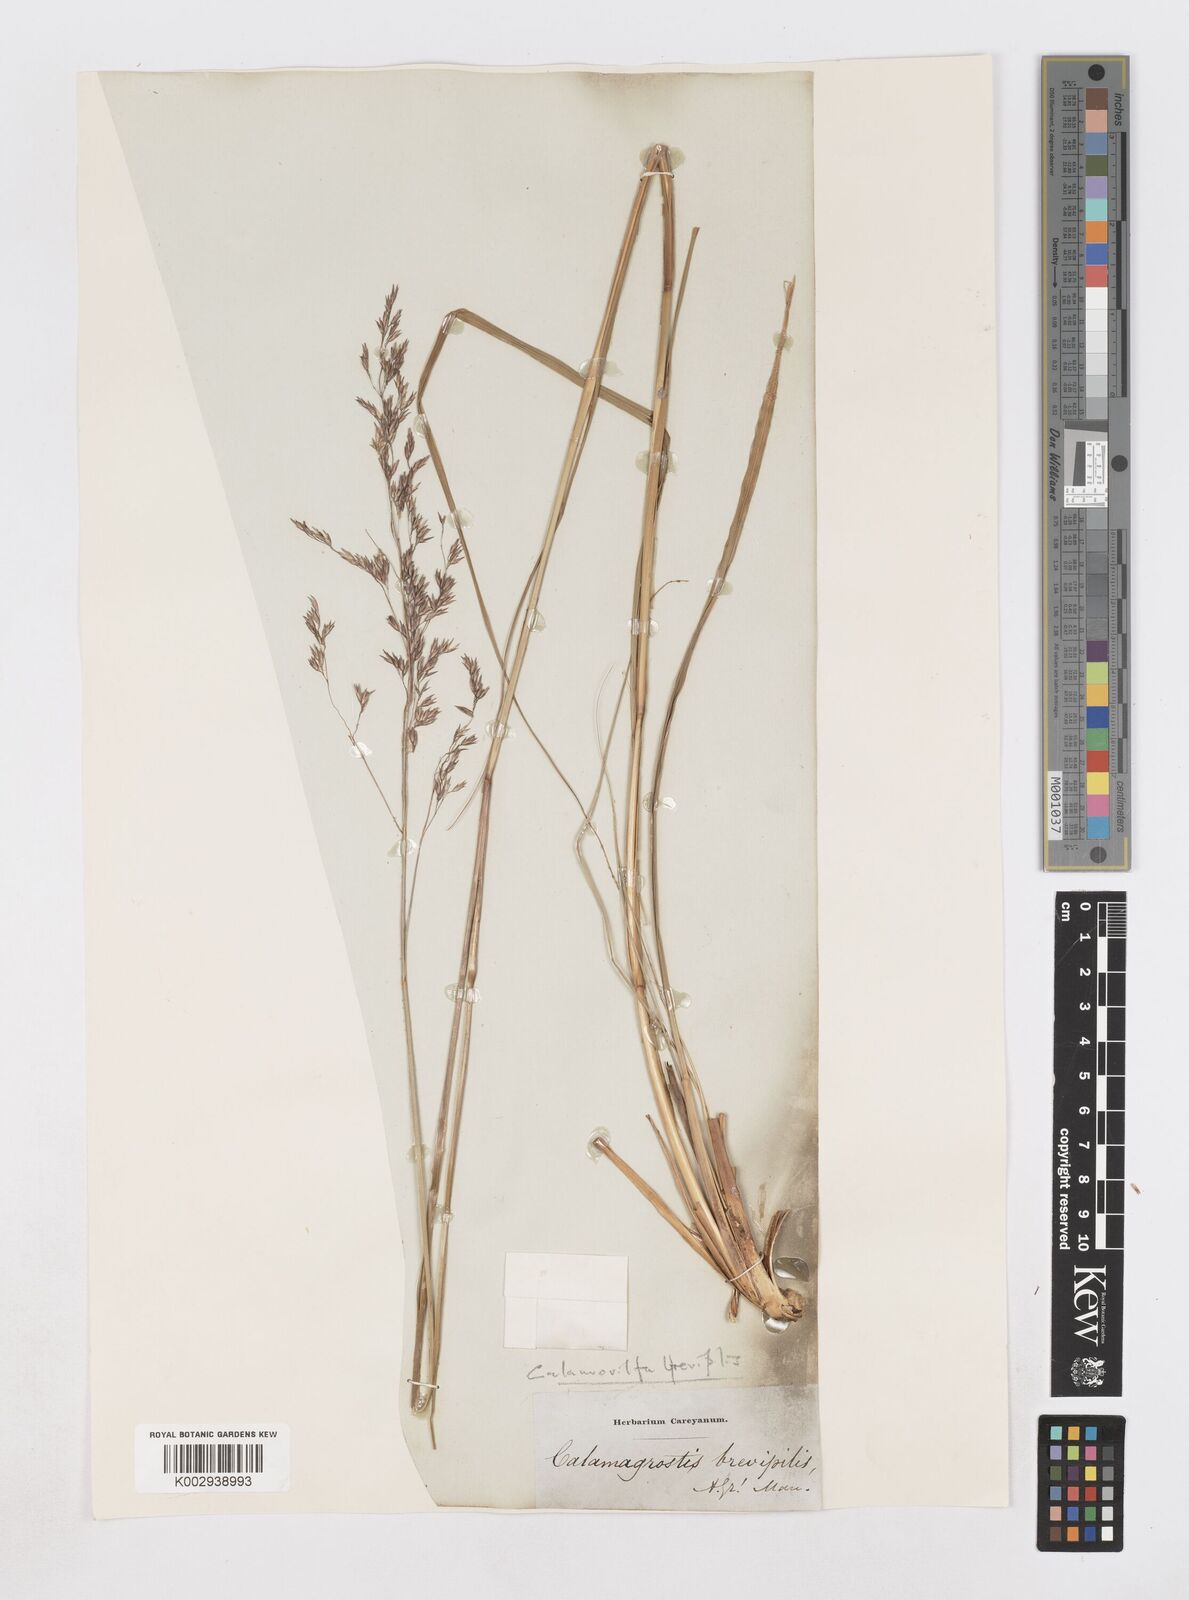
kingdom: Plantae
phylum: Tracheophyta
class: Liliopsida
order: Poales
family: Poaceae
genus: Sporobolus
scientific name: Sporobolus brevipilis
